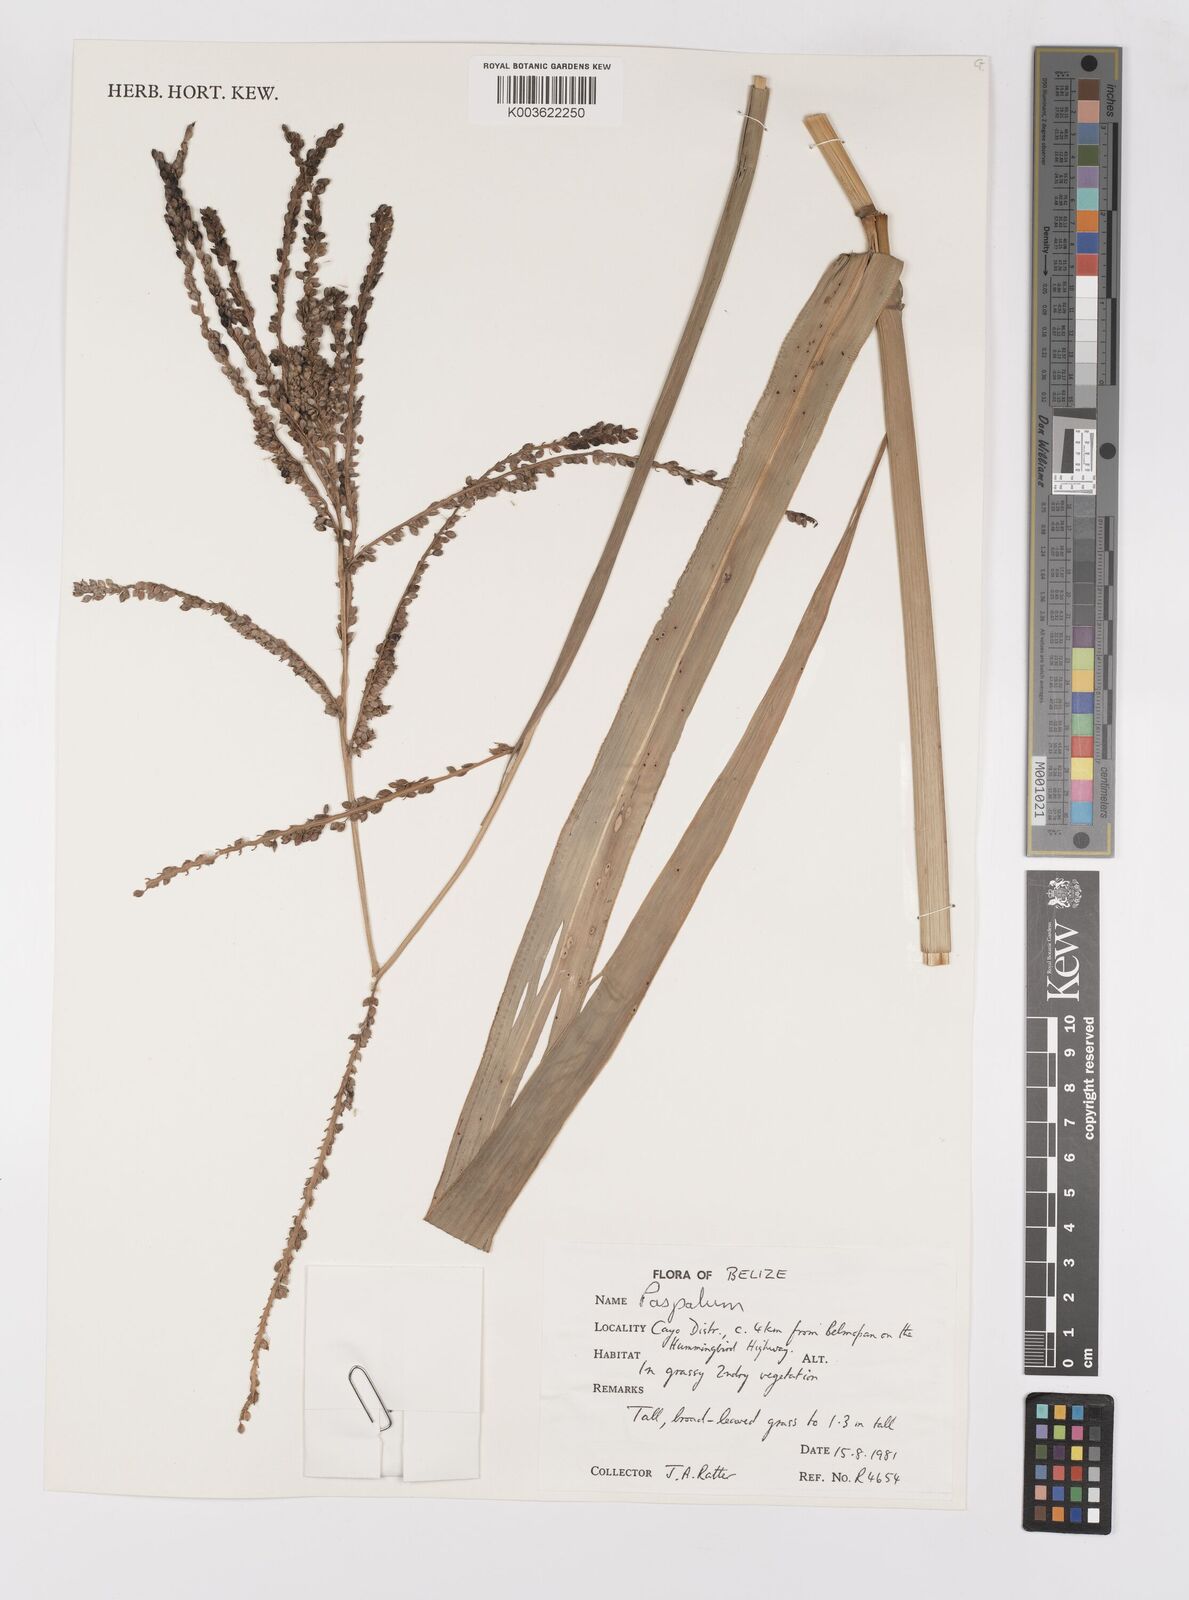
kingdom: Plantae
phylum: Tracheophyta
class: Liliopsida
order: Poales
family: Poaceae
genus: Paspalum
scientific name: Paspalum
